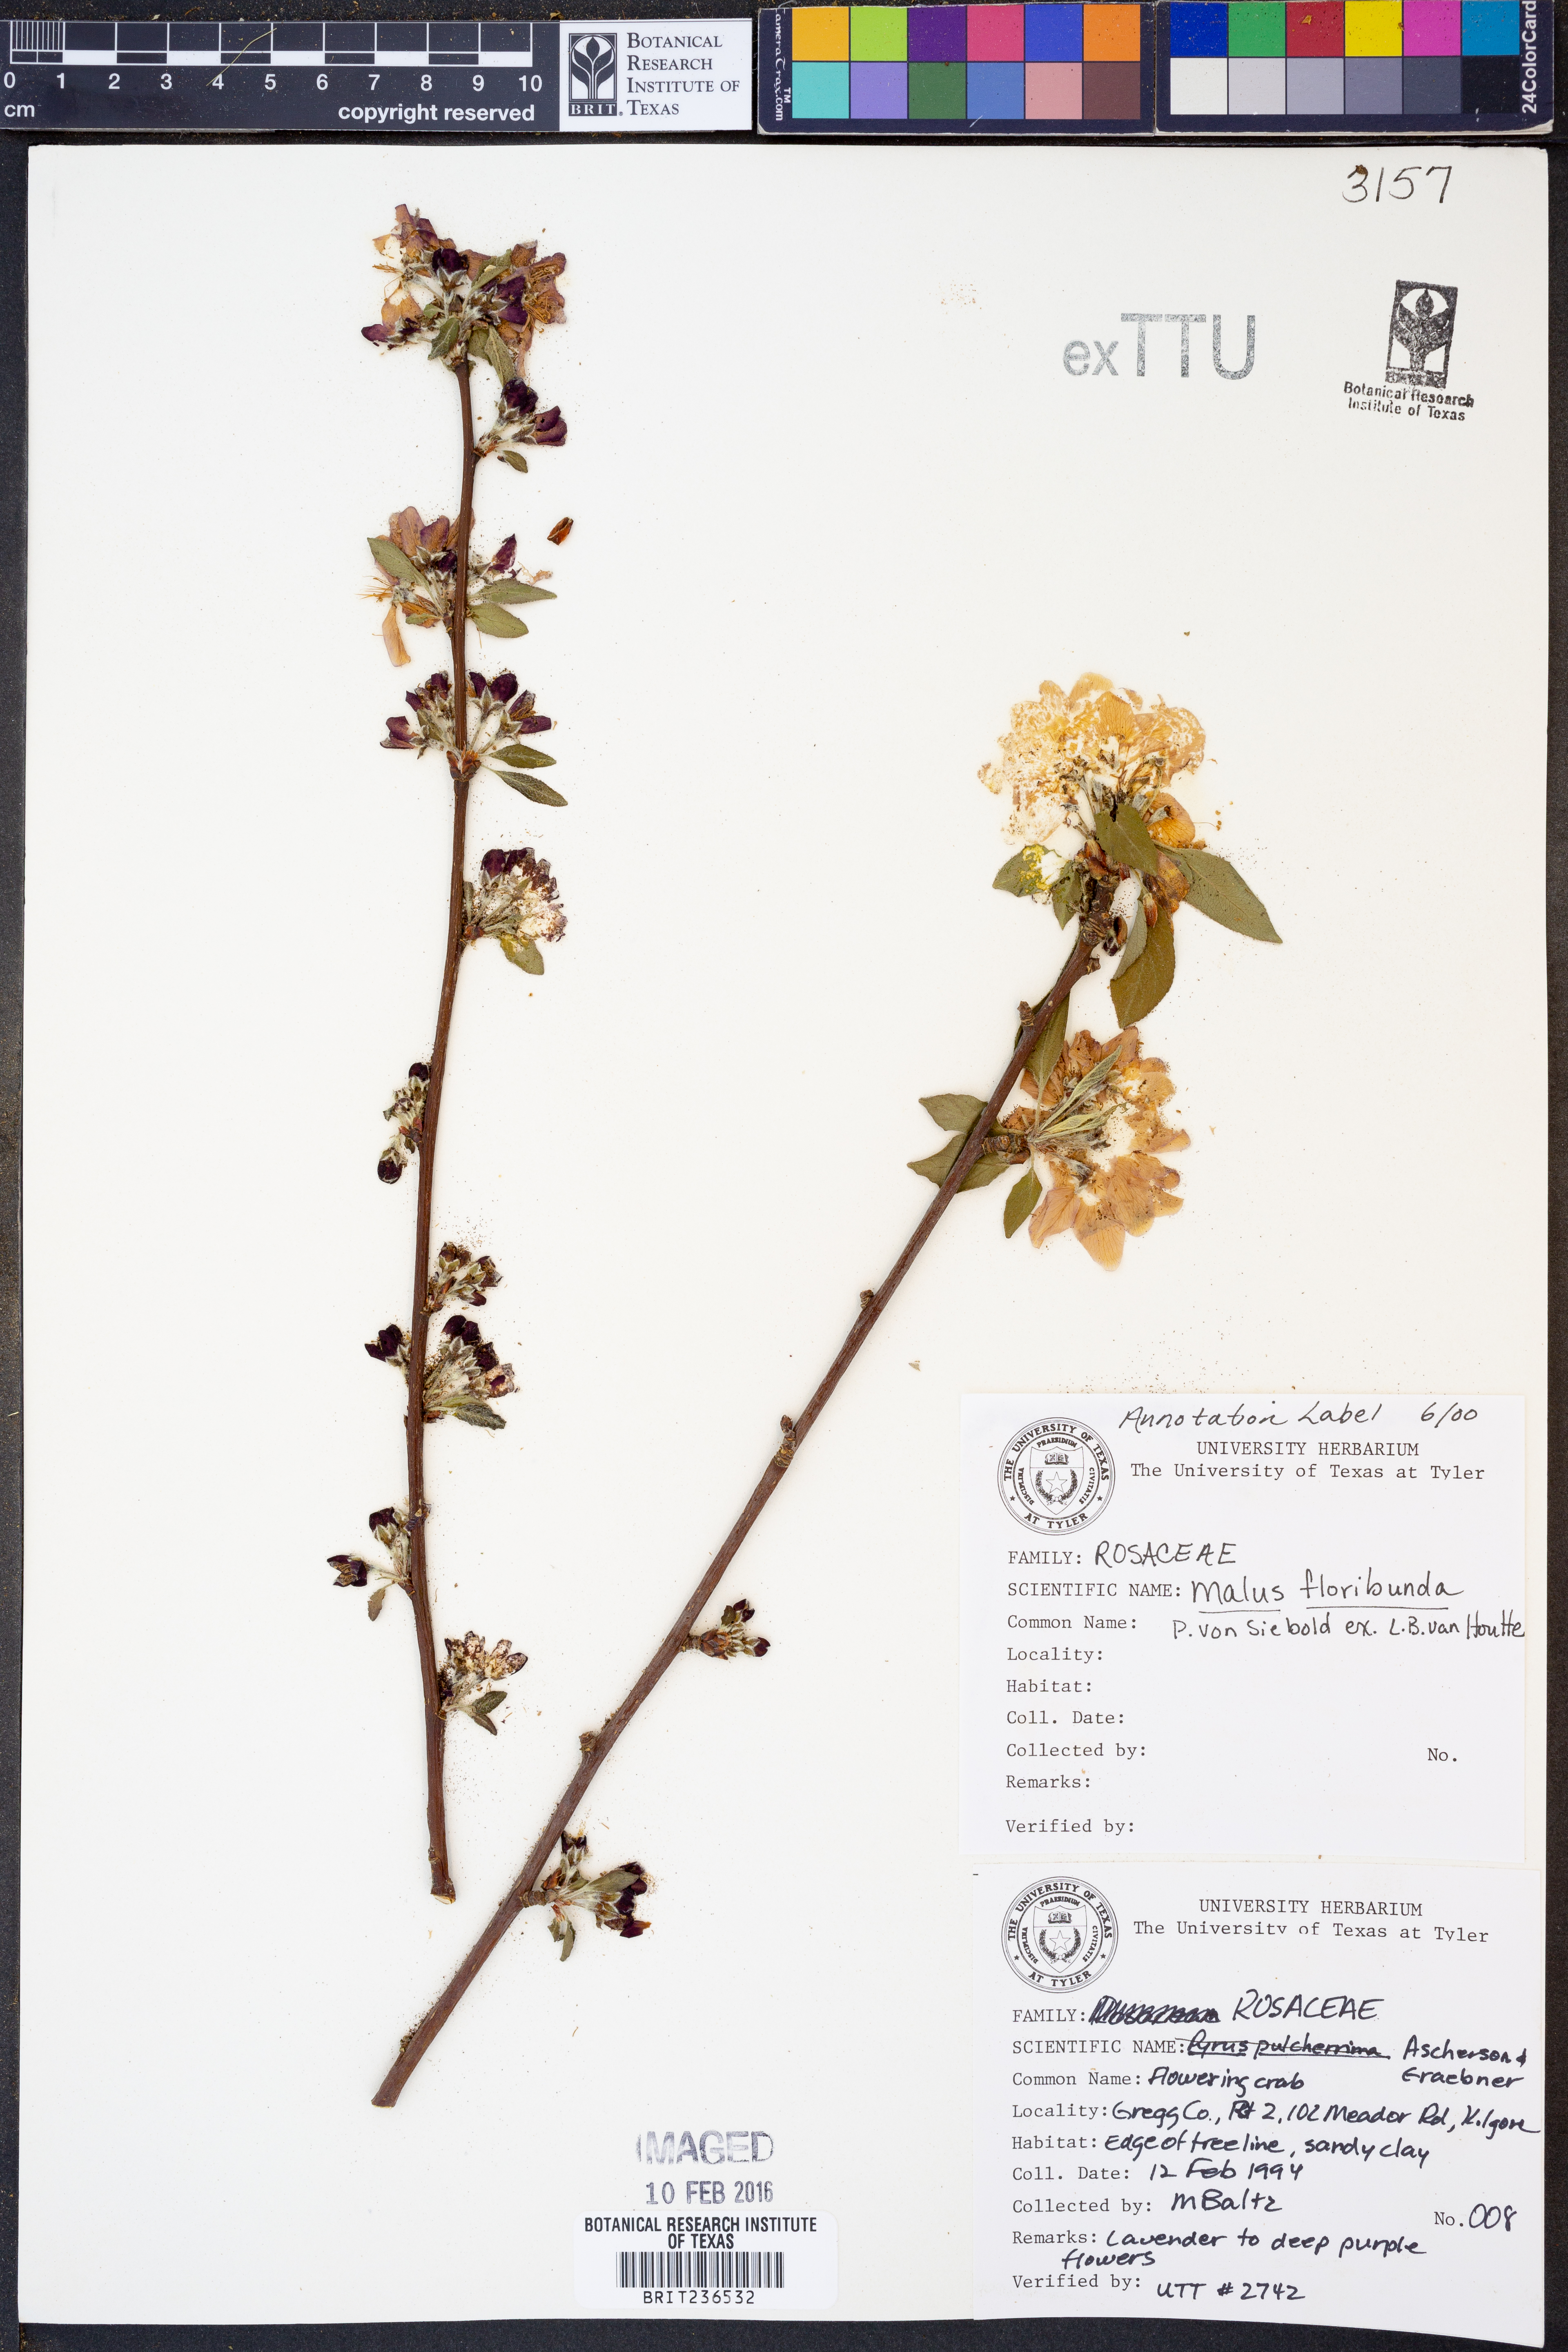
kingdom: Plantae
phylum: Tracheophyta
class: Magnoliopsida
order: Rosales
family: Rosaceae
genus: Malus
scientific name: Malus floribunda
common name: Japanese crab
